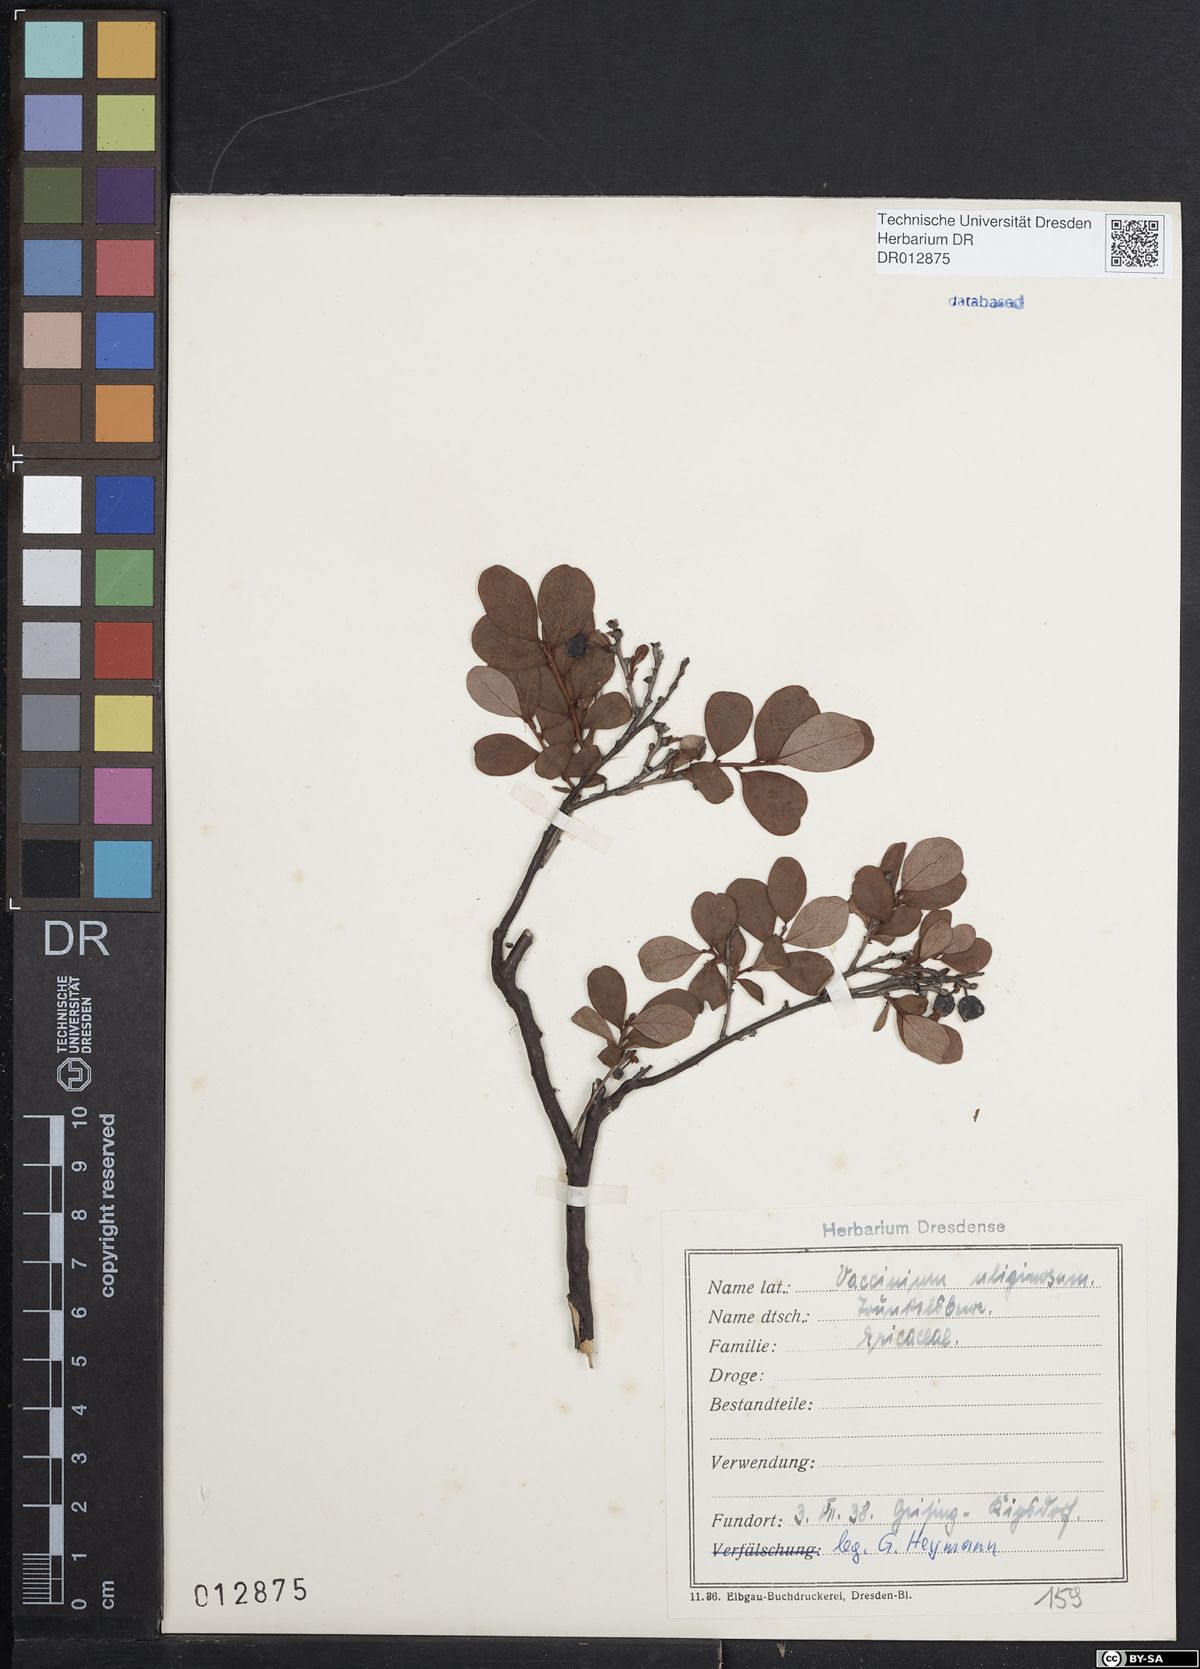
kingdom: Plantae
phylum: Tracheophyta
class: Magnoliopsida
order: Ericales
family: Ericaceae
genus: Vaccinium
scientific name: Vaccinium uliginosum
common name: Bog bilberry
